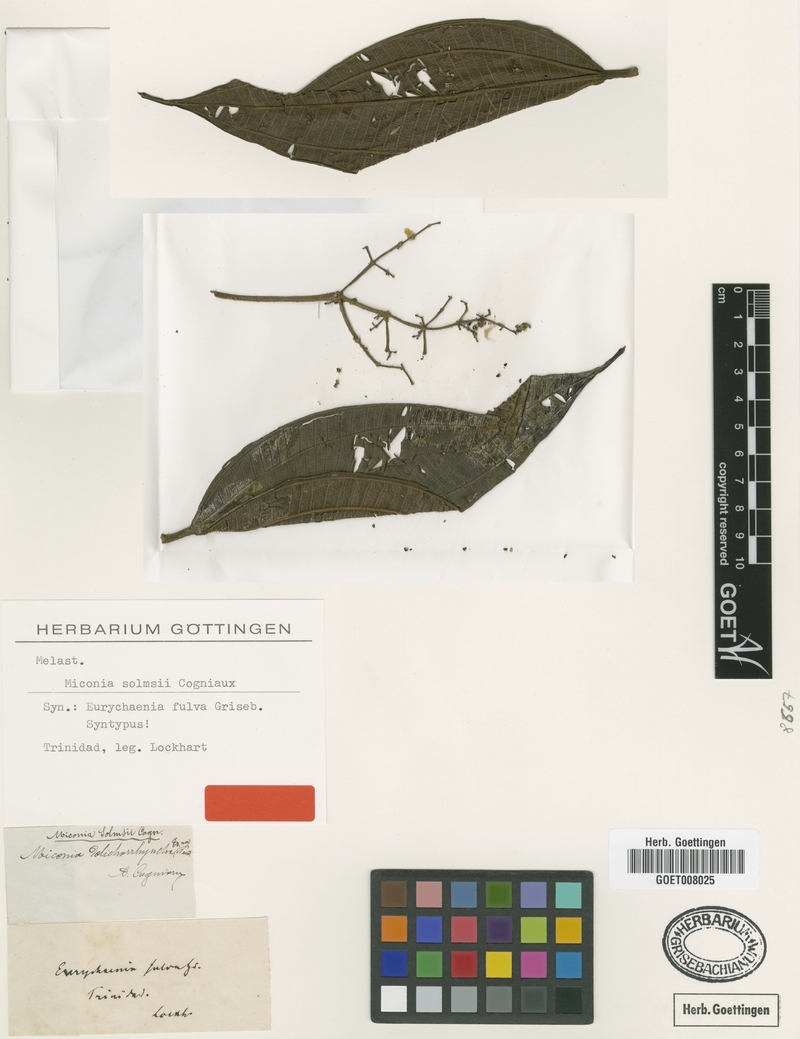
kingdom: Plantae
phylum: Tracheophyta
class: Magnoliopsida
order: Myrtales
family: Melastomataceae
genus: Miconia
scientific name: Miconia dolichorrhyncha
